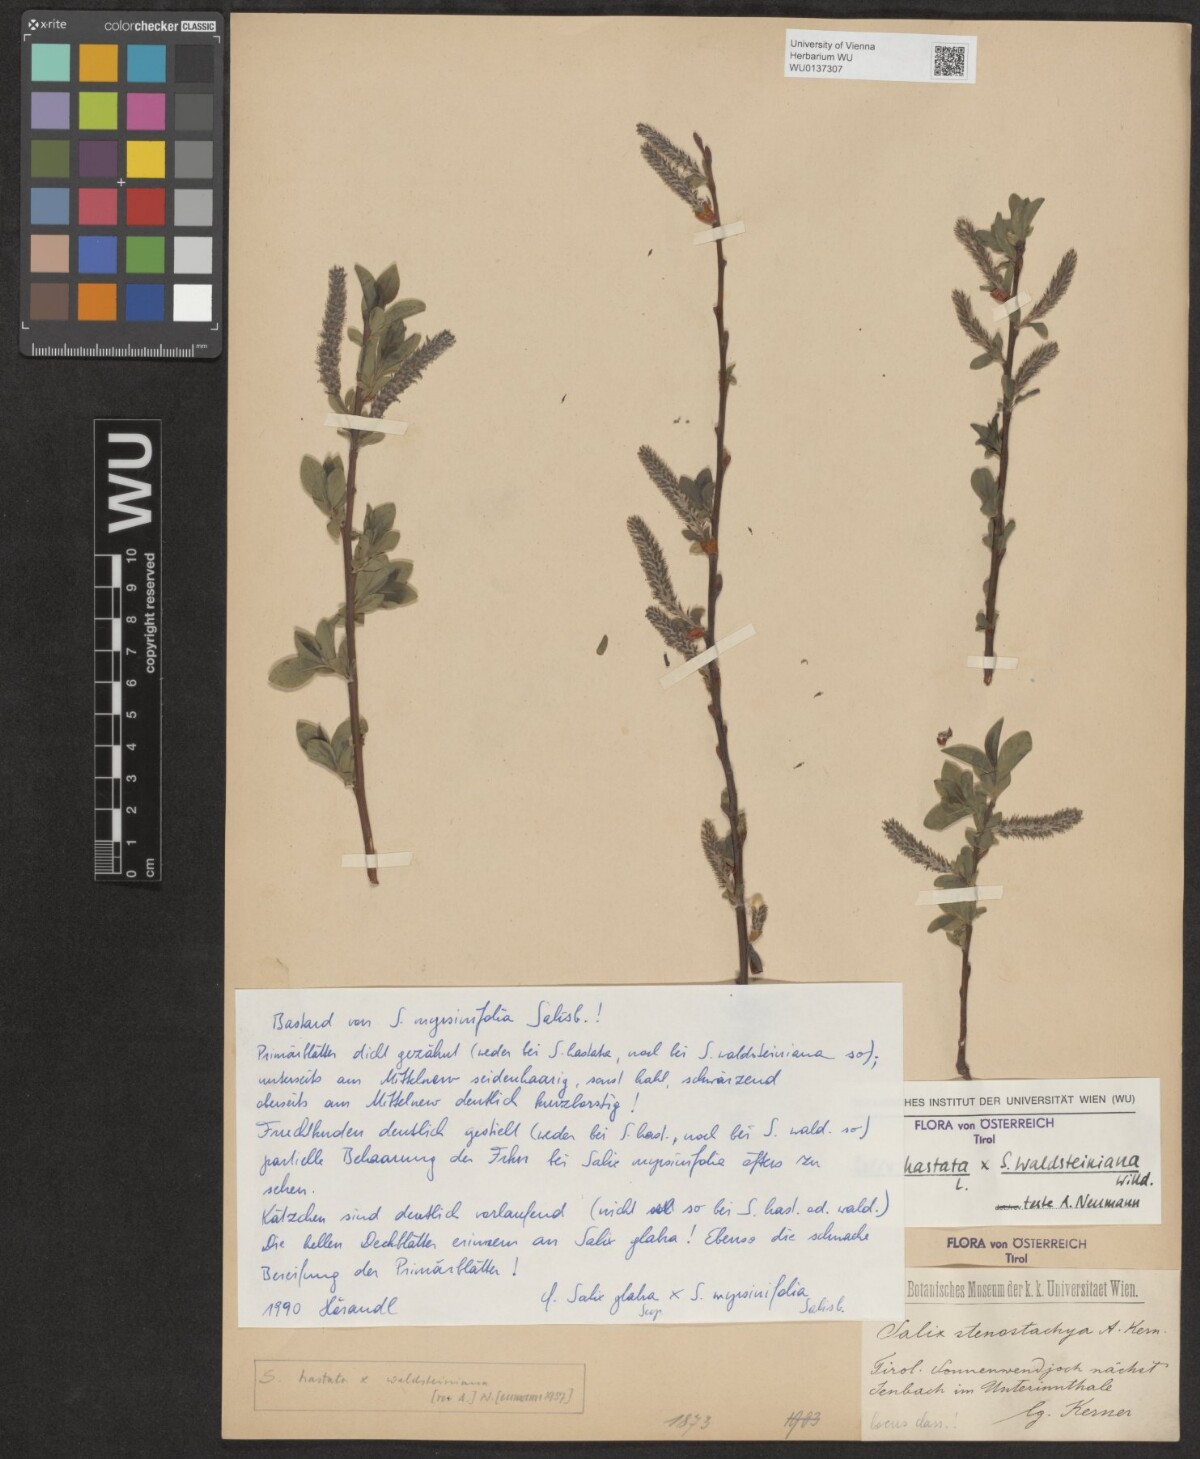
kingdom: Plantae
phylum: Tracheophyta
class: Magnoliopsida
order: Malpighiales
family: Salicaceae
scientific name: Salicaceae
